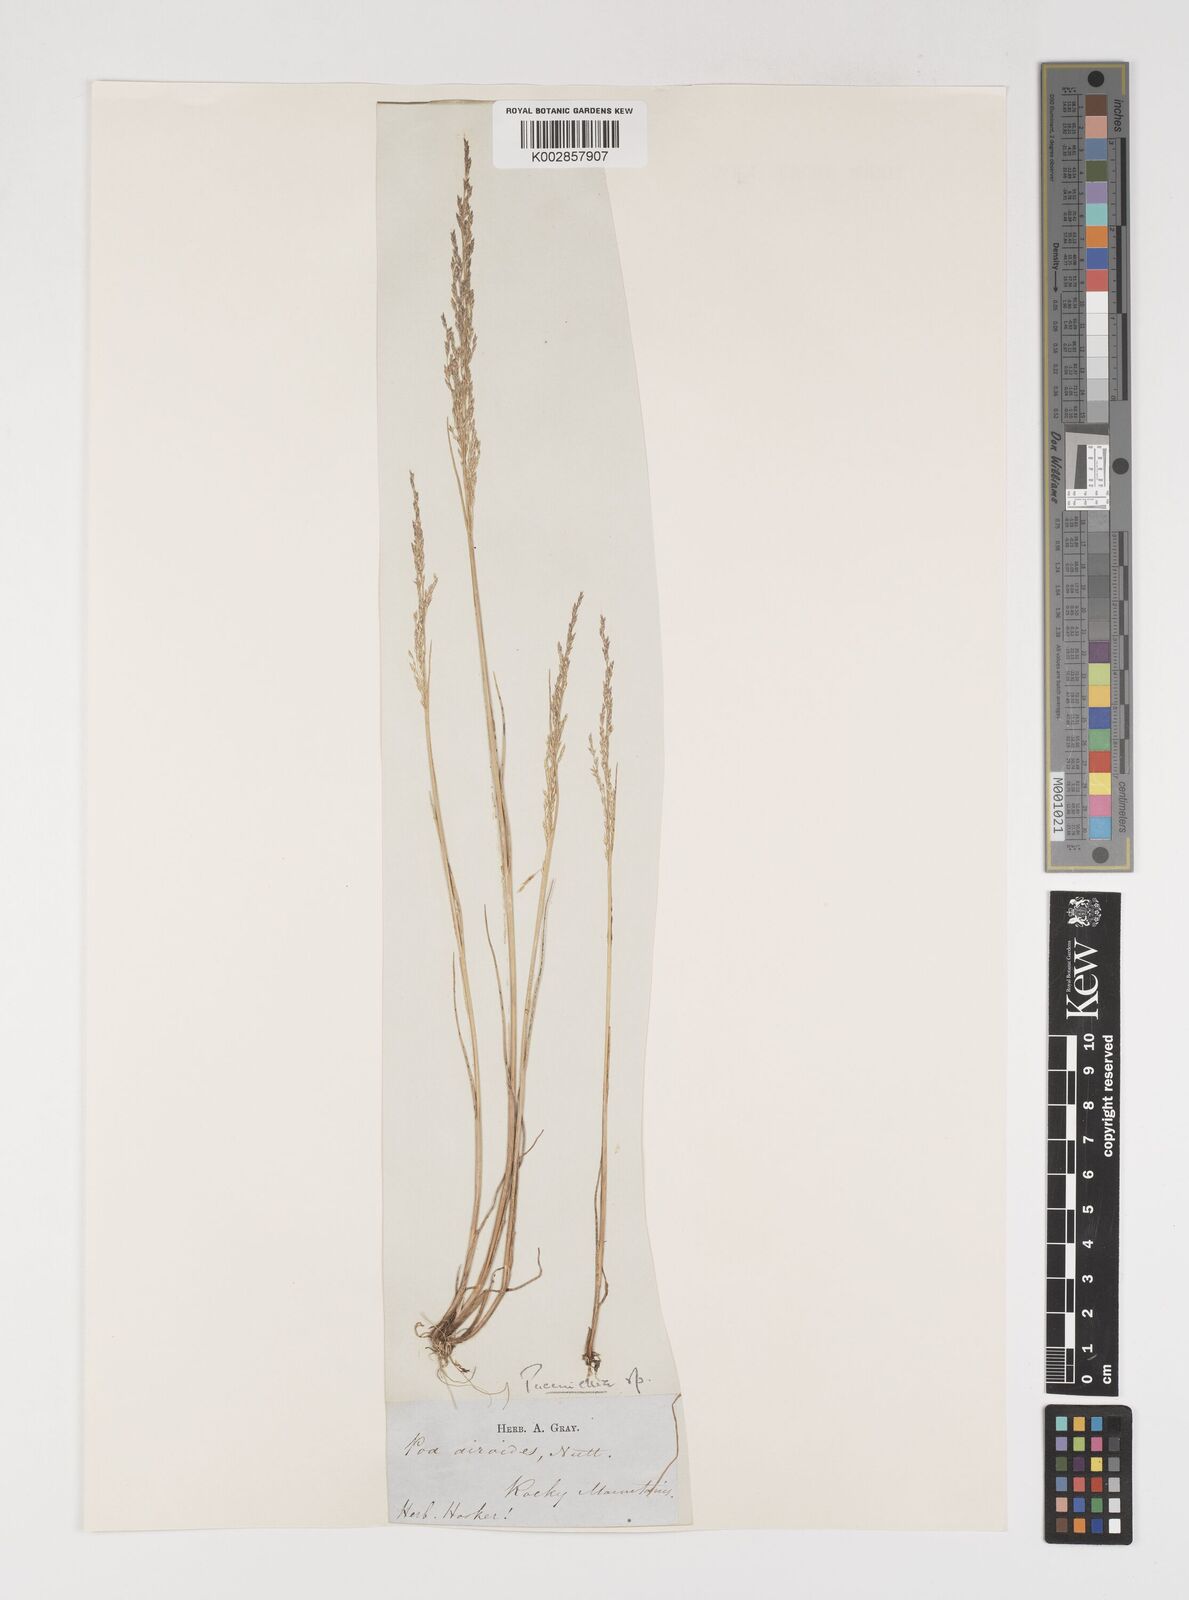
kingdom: Plantae
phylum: Tracheophyta
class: Liliopsida
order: Poales
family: Poaceae
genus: Puccinellia
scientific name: Puccinellia
